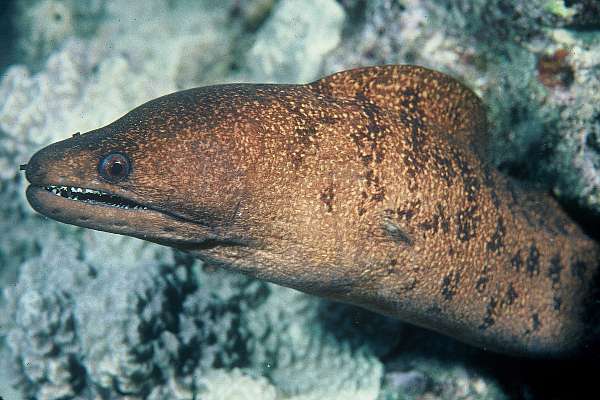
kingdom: Animalia
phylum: Chordata
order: Anguilliformes
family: Muraenidae
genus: Gymnothorax
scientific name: Gymnothorax eurostus
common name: Stout moray
